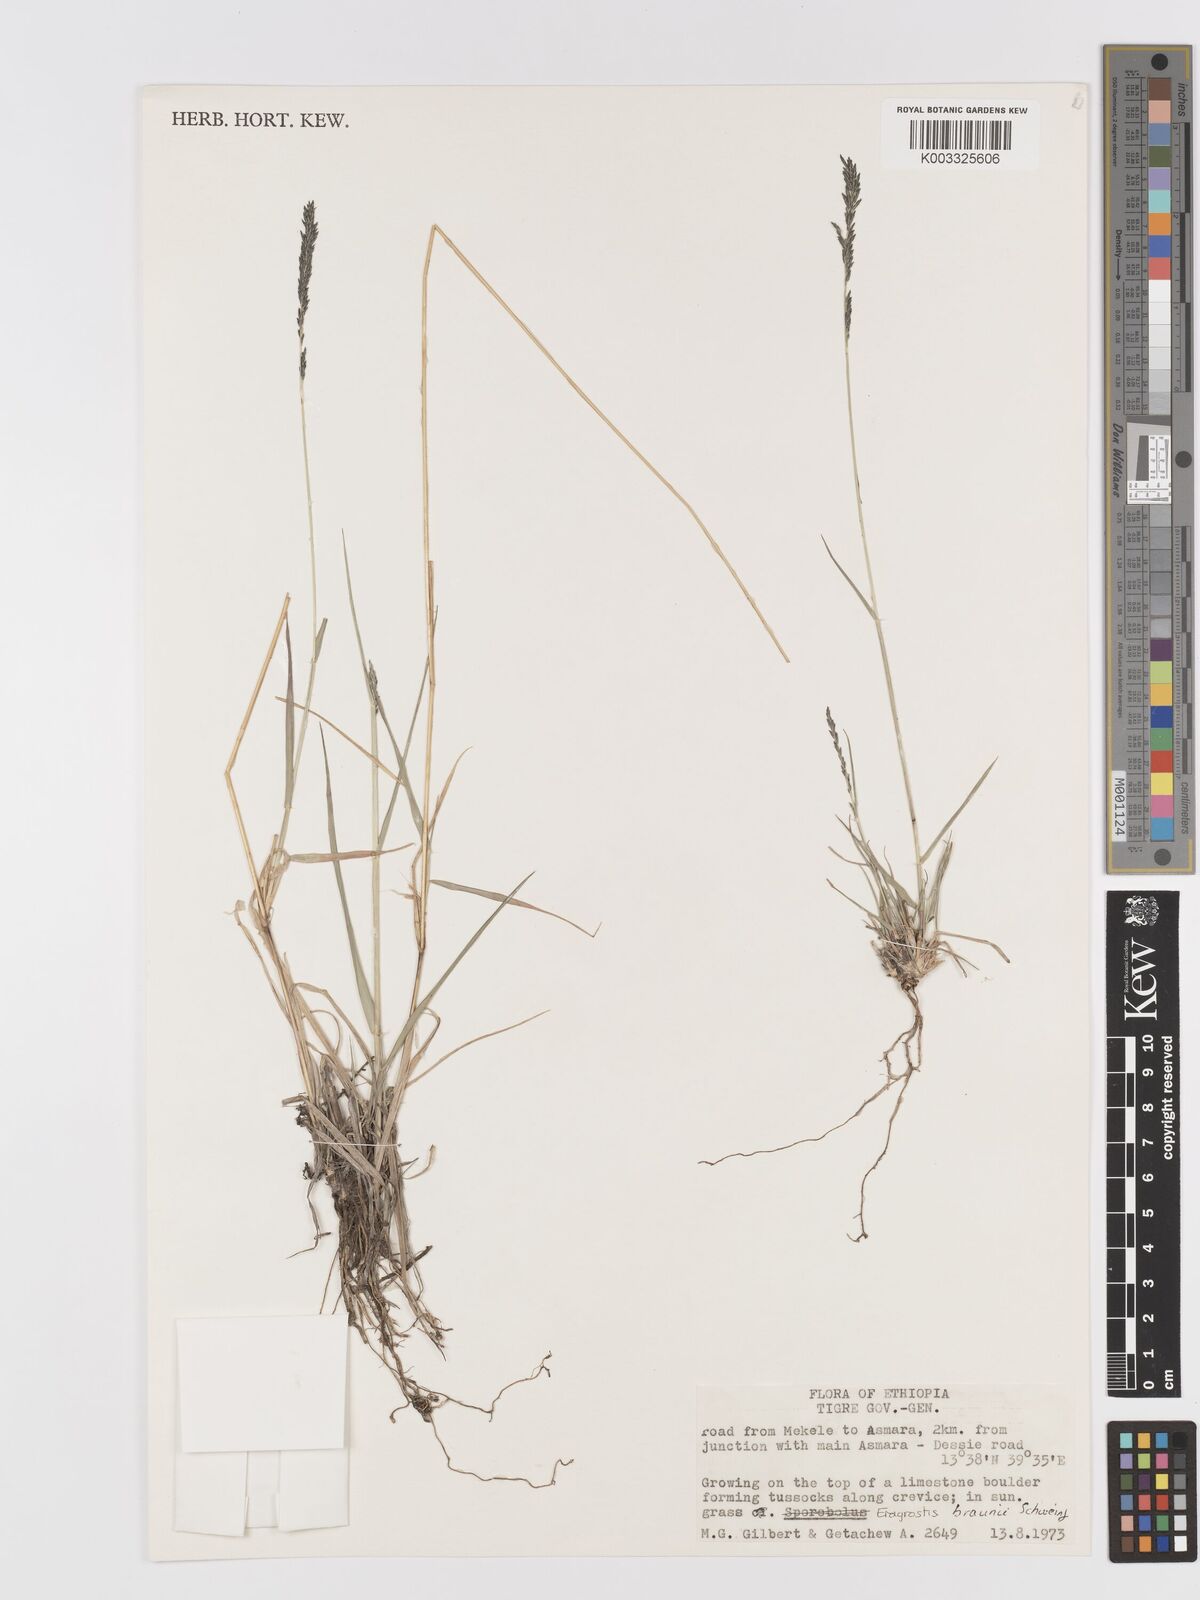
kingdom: Plantae
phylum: Tracheophyta
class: Liliopsida
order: Poales
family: Poaceae
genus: Eragrostis
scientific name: Eragrostis braunii
